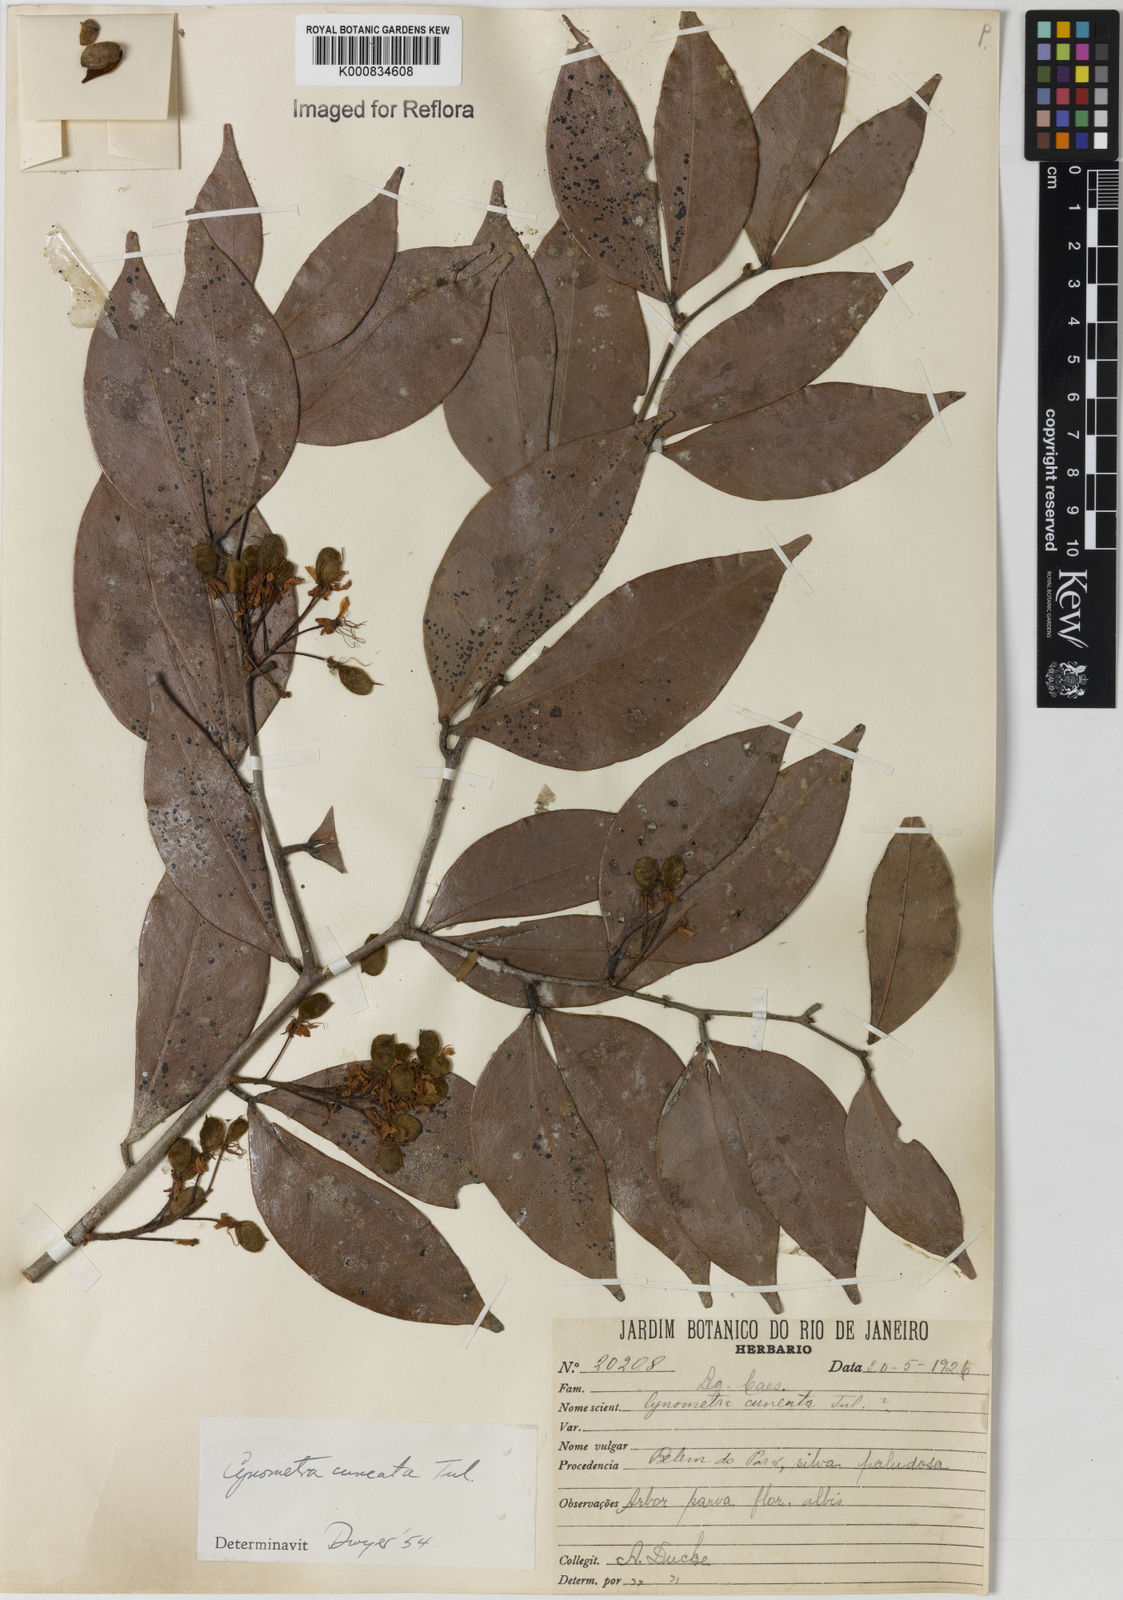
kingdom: Plantae
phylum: Tracheophyta
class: Magnoliopsida
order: Fabales
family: Fabaceae
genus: Cynometra
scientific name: Cynometra cuneata
